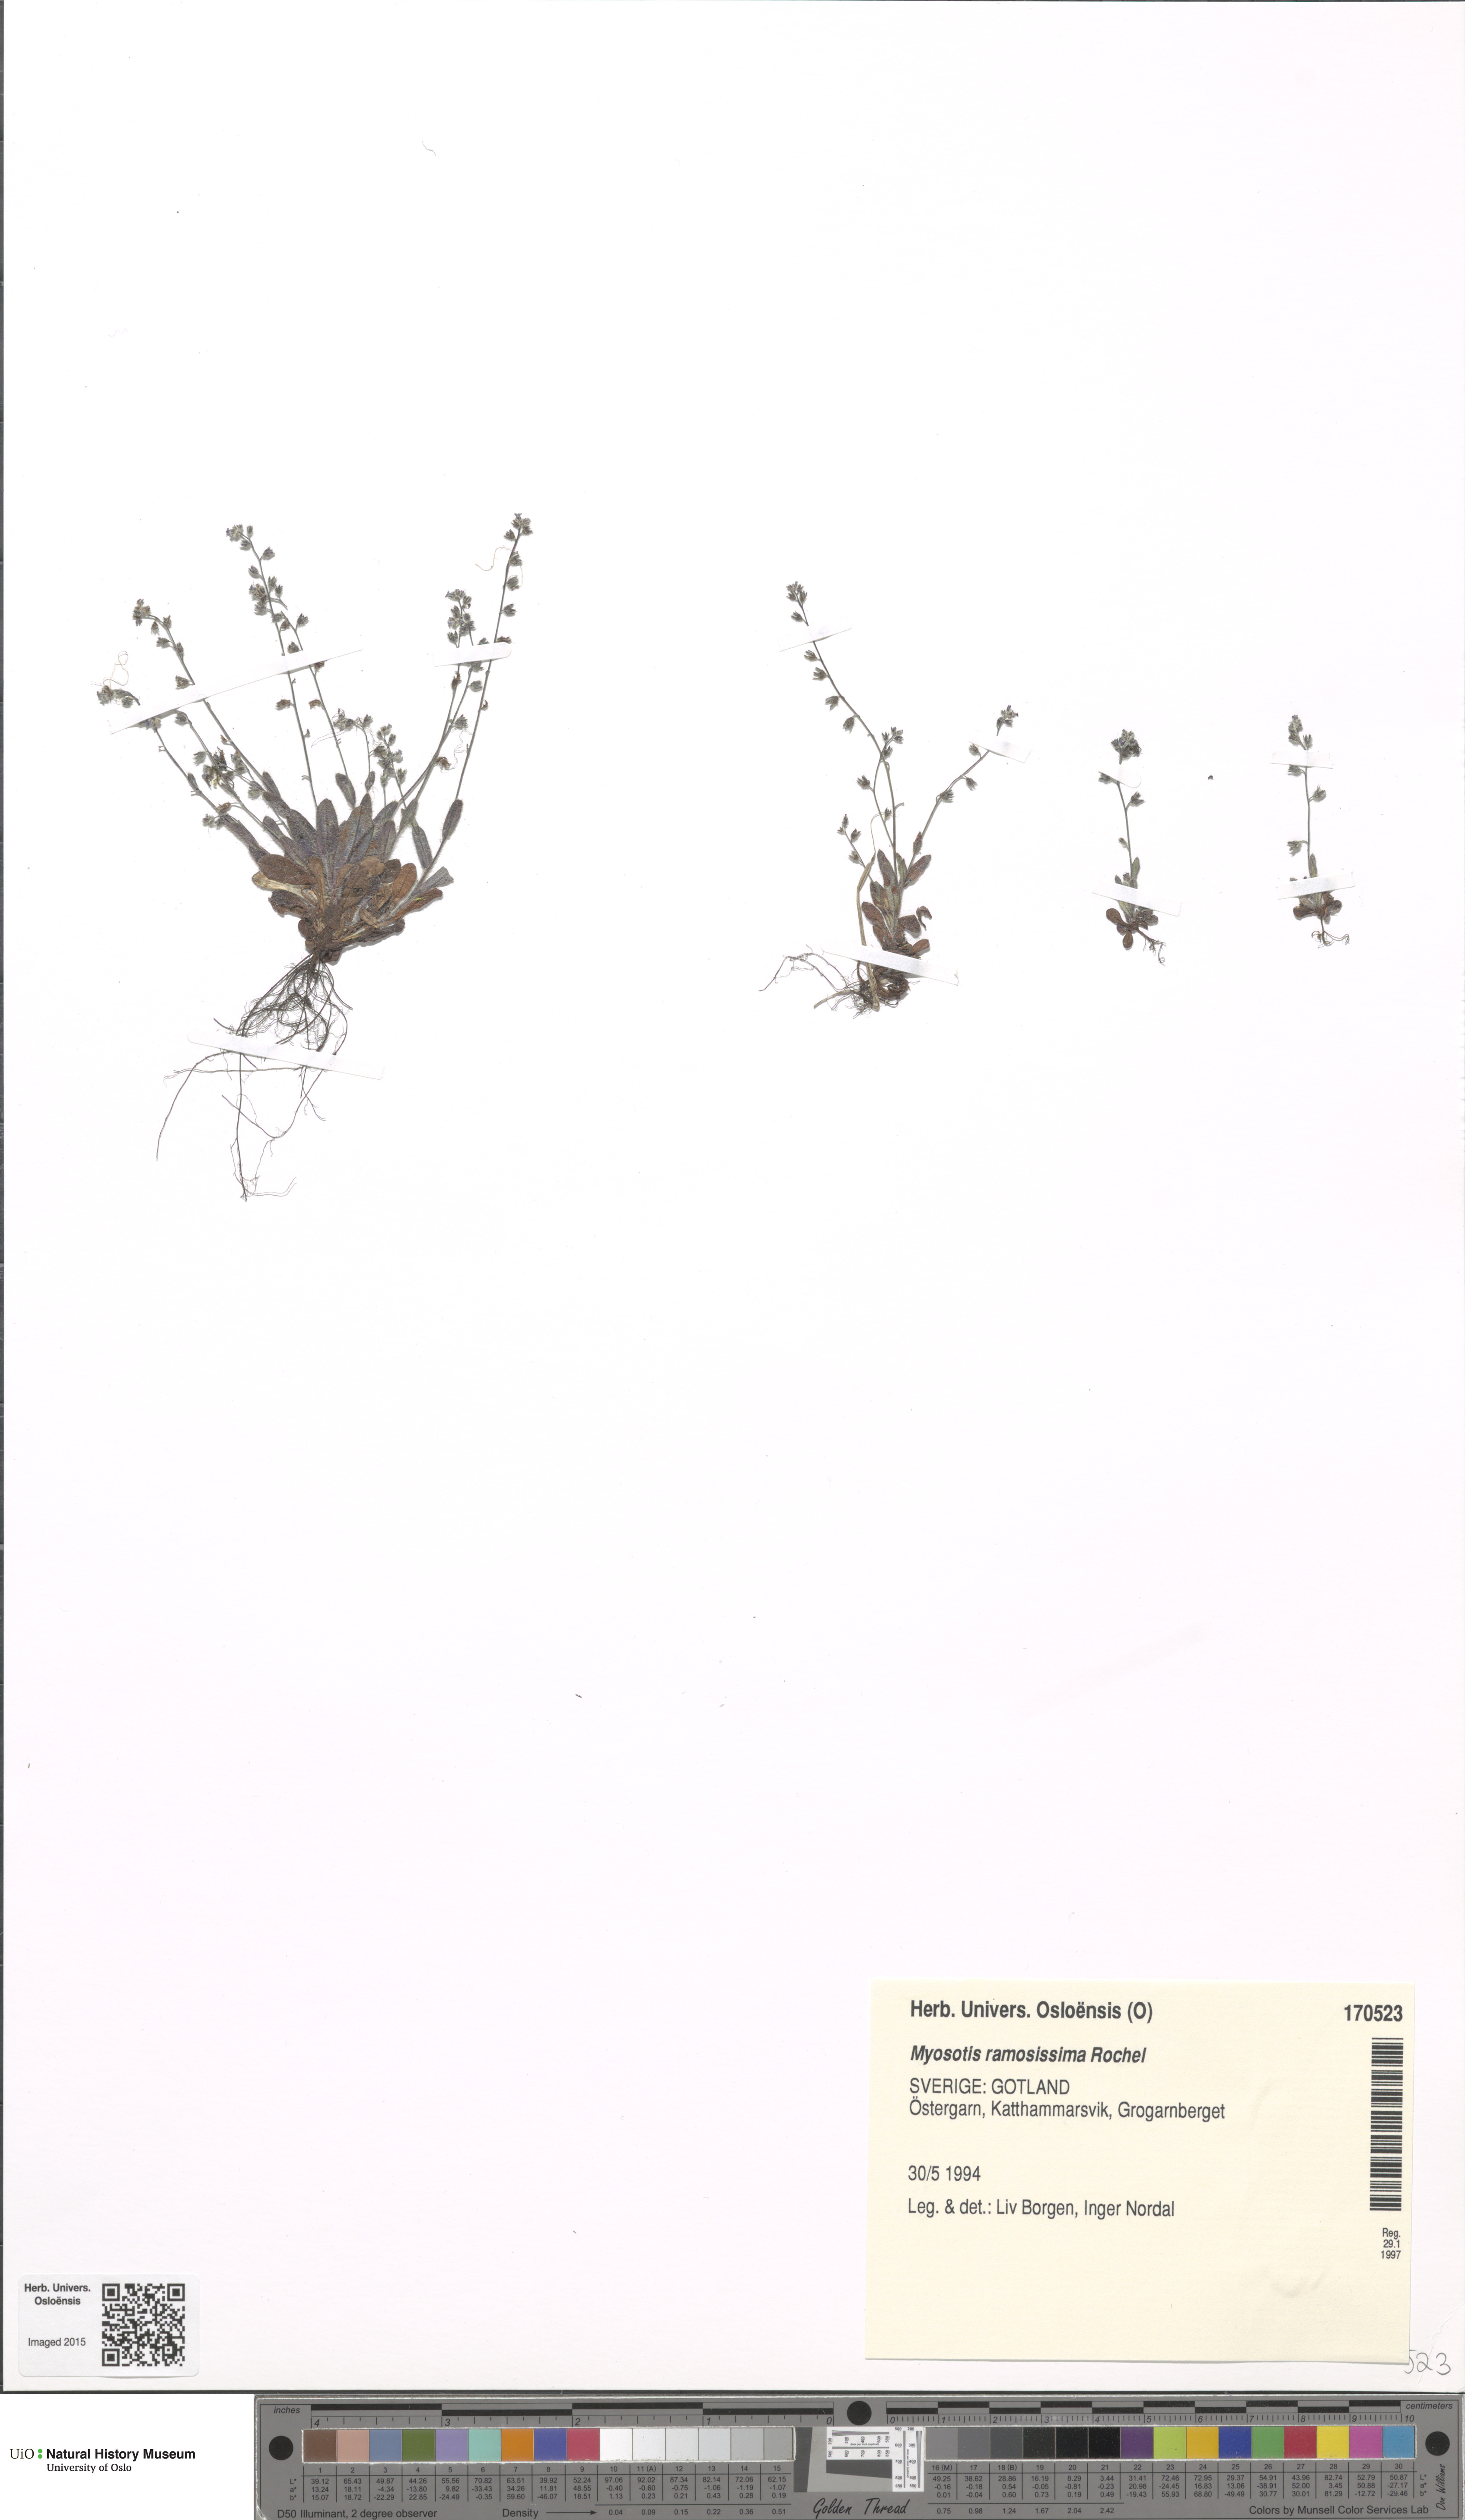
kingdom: Plantae
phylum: Tracheophyta
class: Magnoliopsida
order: Boraginales
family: Boraginaceae
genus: Myosotis
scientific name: Myosotis ramosissima
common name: Early forget-me-not
